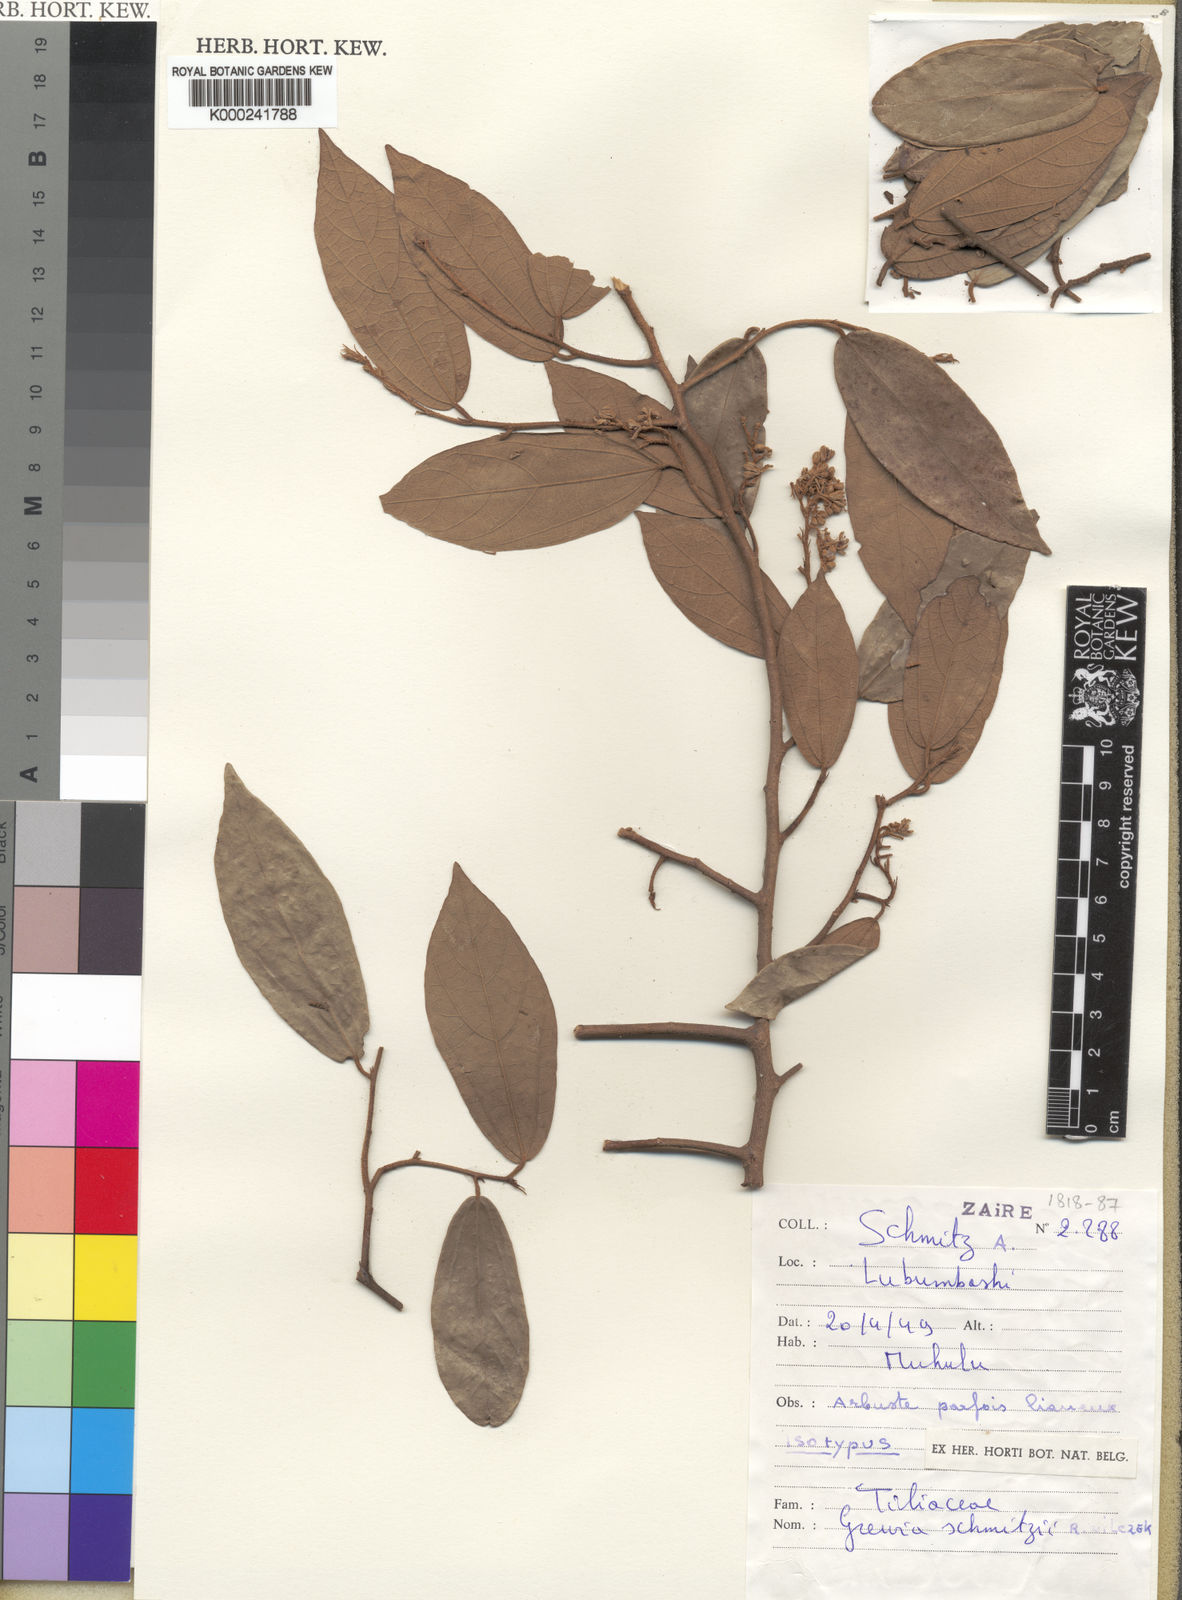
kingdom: Plantae
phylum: Tracheophyta
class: Magnoliopsida
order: Malvales
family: Malvaceae
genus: Grewia
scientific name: Grewia schmitzii
